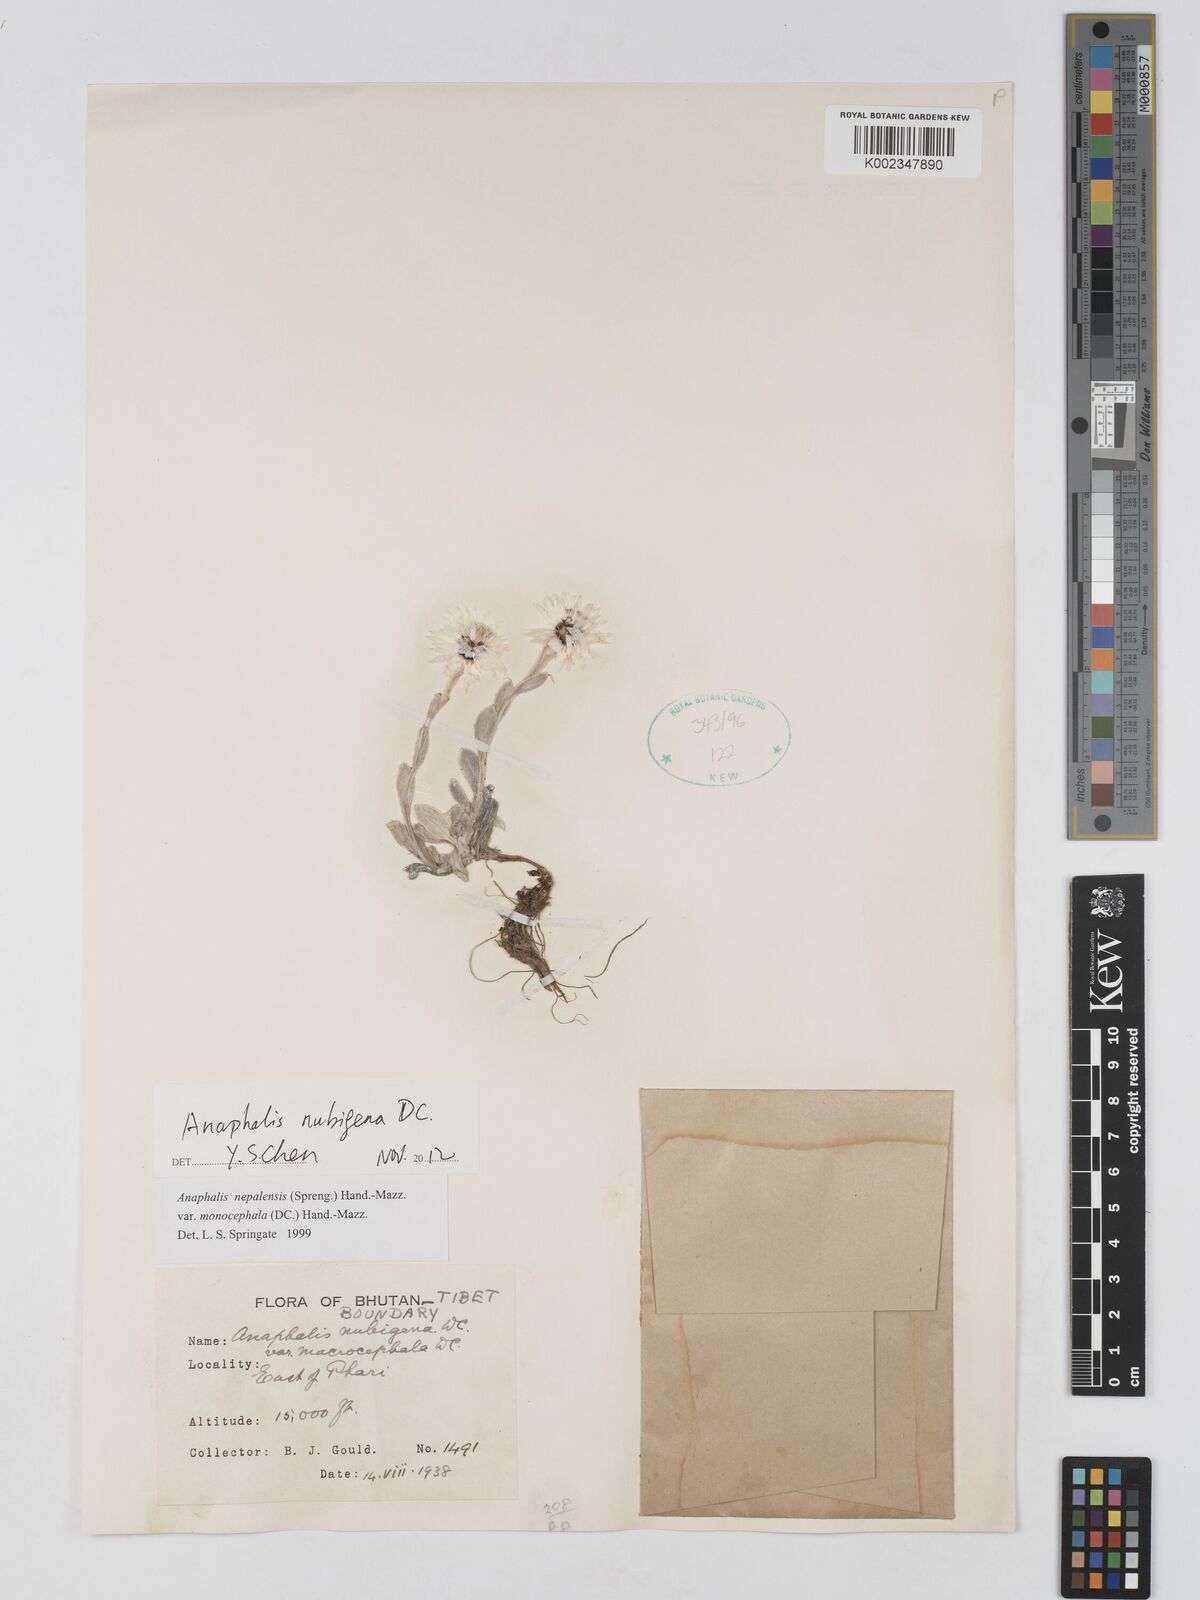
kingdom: Plantae
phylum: Tracheophyta
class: Magnoliopsida
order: Asterales
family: Asteraceae
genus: Anaphalis
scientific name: Anaphalis nepalensis
